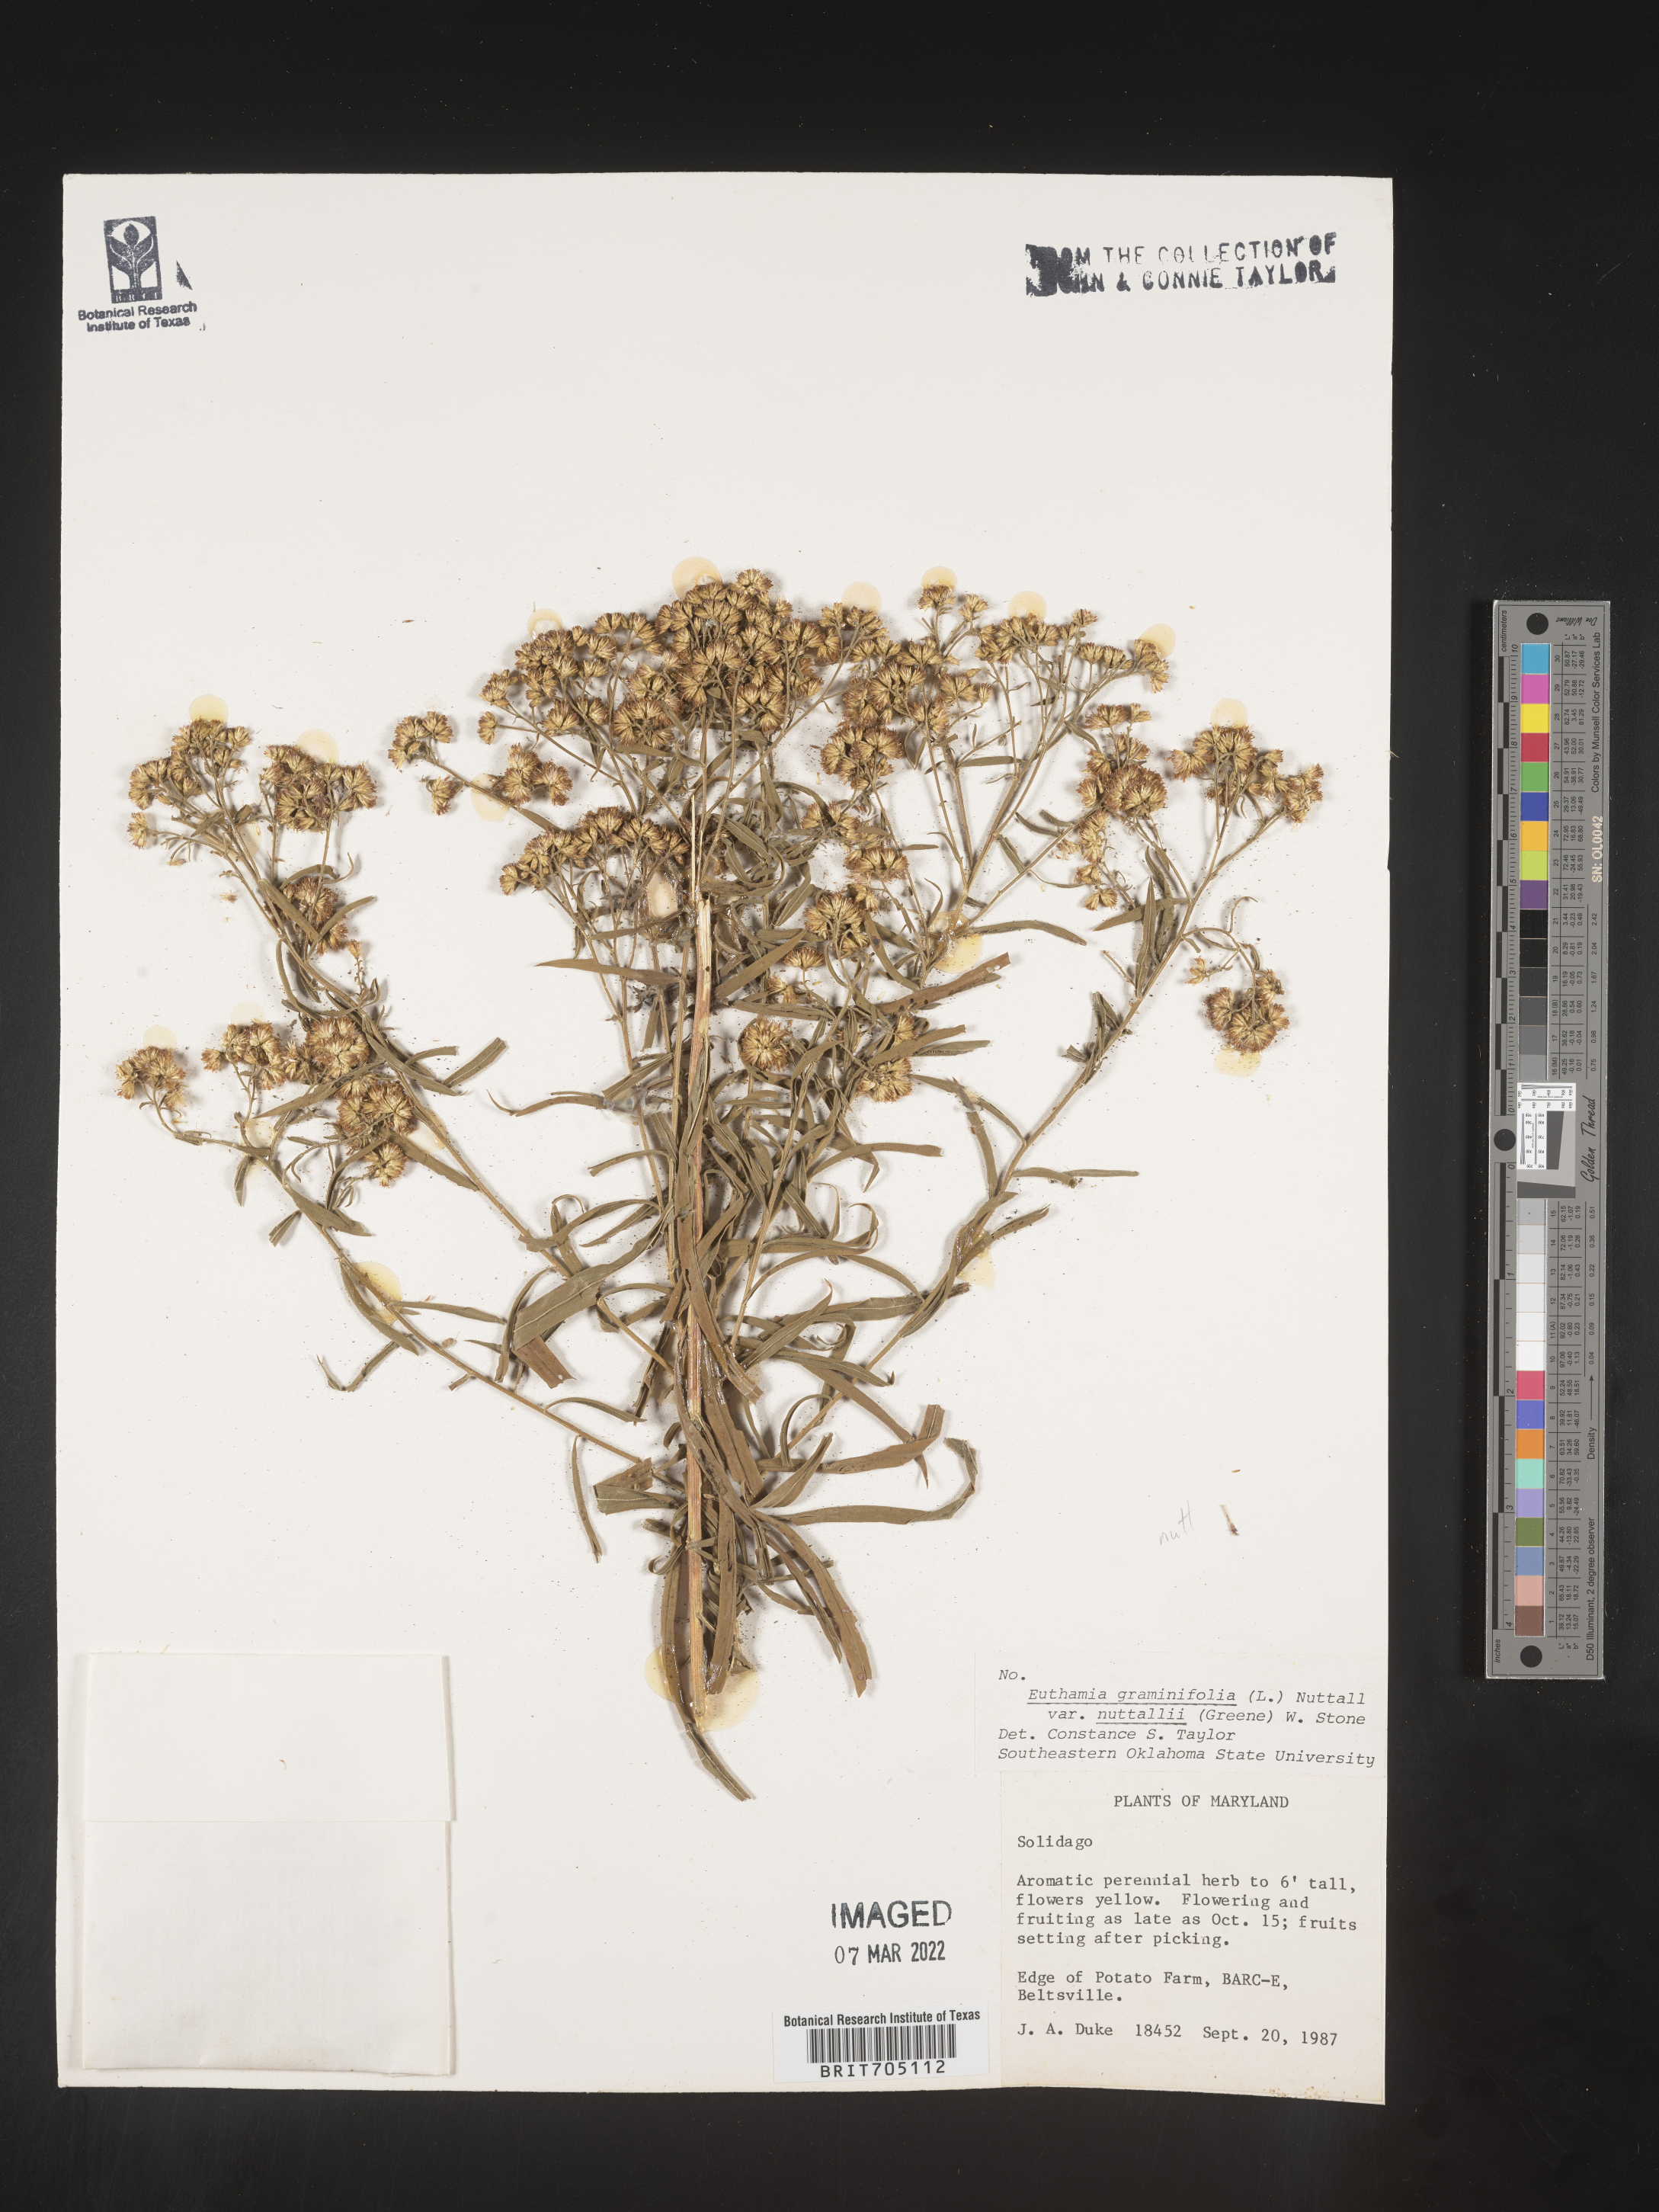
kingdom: Plantae
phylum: Tracheophyta
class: Magnoliopsida
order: Asterales
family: Asteraceae
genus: Euthamia
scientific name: Euthamia graminifolia
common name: Common goldentop
